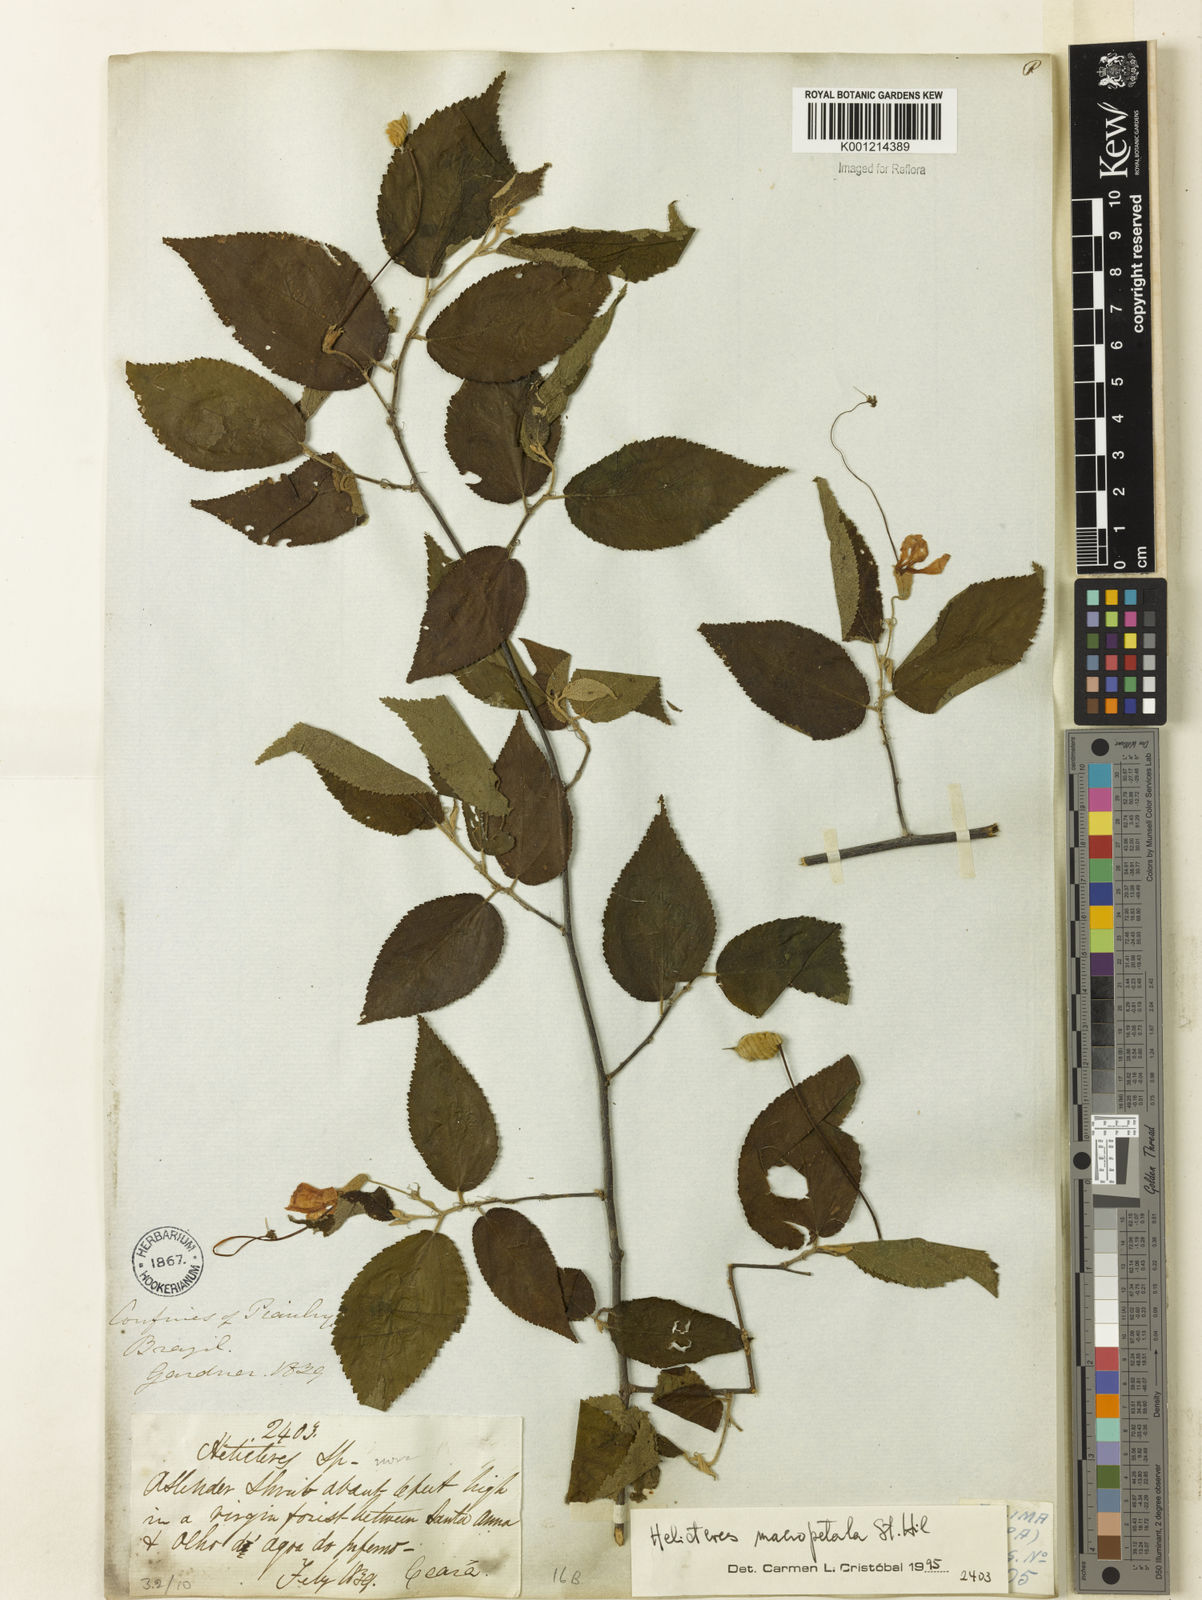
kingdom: Plantae
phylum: Tracheophyta
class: Magnoliopsida
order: Malvales
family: Malvaceae
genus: Helicteres
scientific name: Helicteres
